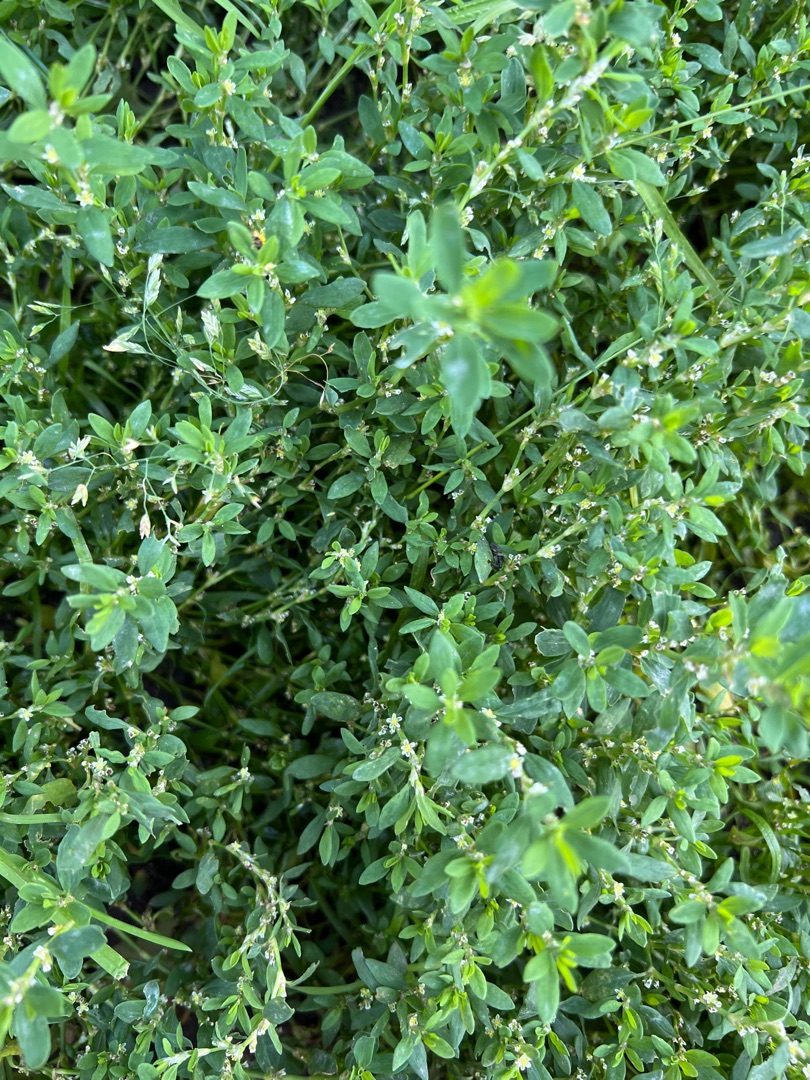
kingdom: Plantae
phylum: Tracheophyta
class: Magnoliopsida
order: Caryophyllales
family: Polygonaceae
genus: Polygonum
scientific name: Polygonum aviculare
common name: Vej-pileurt
